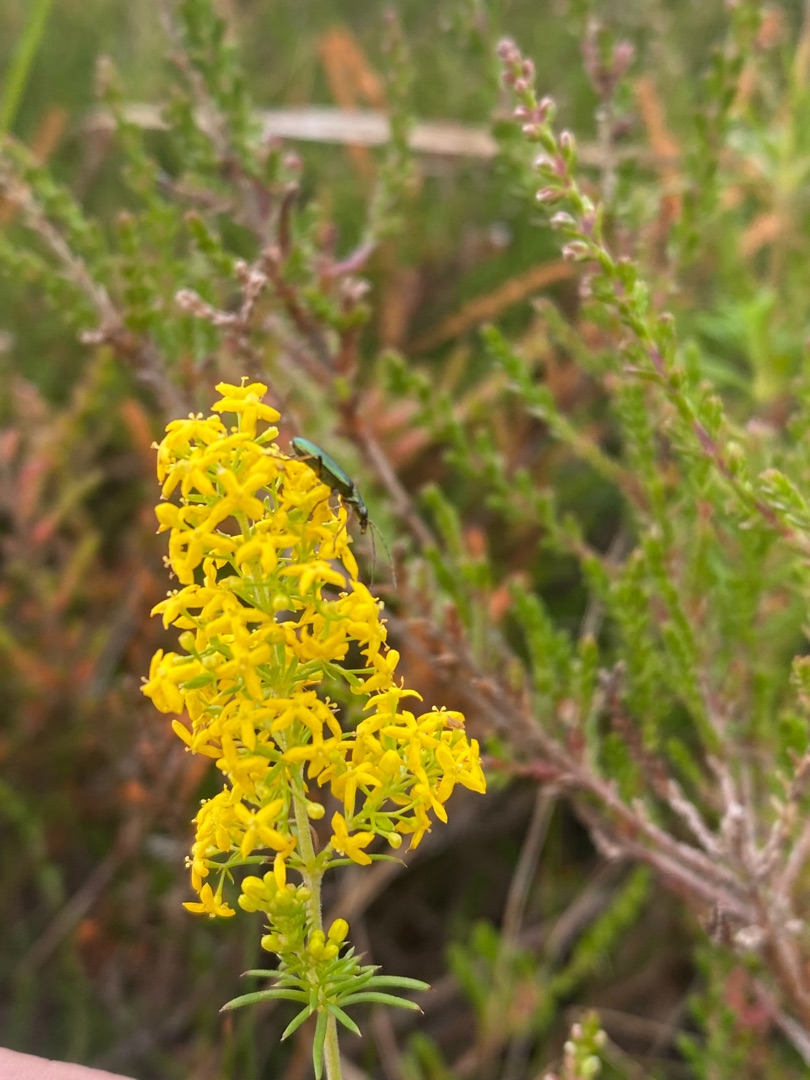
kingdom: Plantae
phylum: Tracheophyta
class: Magnoliopsida
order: Gentianales
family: Rubiaceae
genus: Galium
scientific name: Galium verum
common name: Gul snerre
